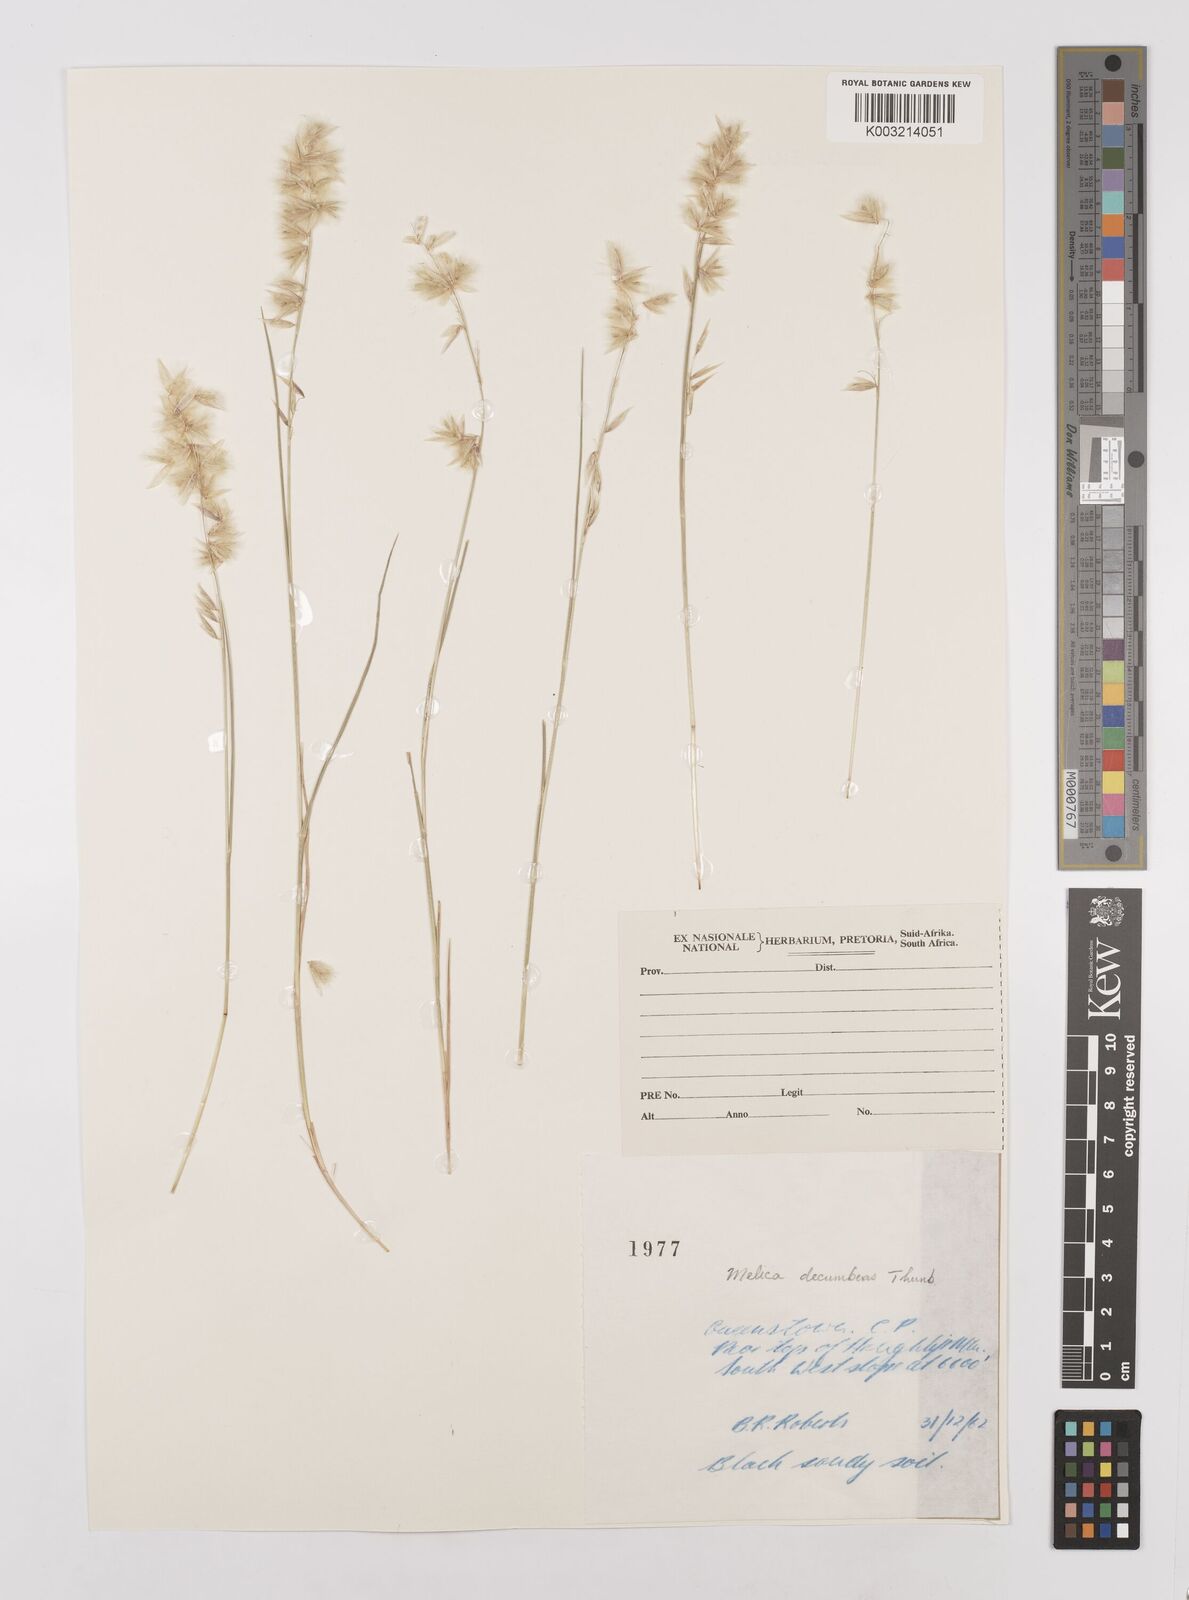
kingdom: Plantae
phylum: Tracheophyta
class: Liliopsida
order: Poales
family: Poaceae
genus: Melica
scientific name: Melica dendroides
